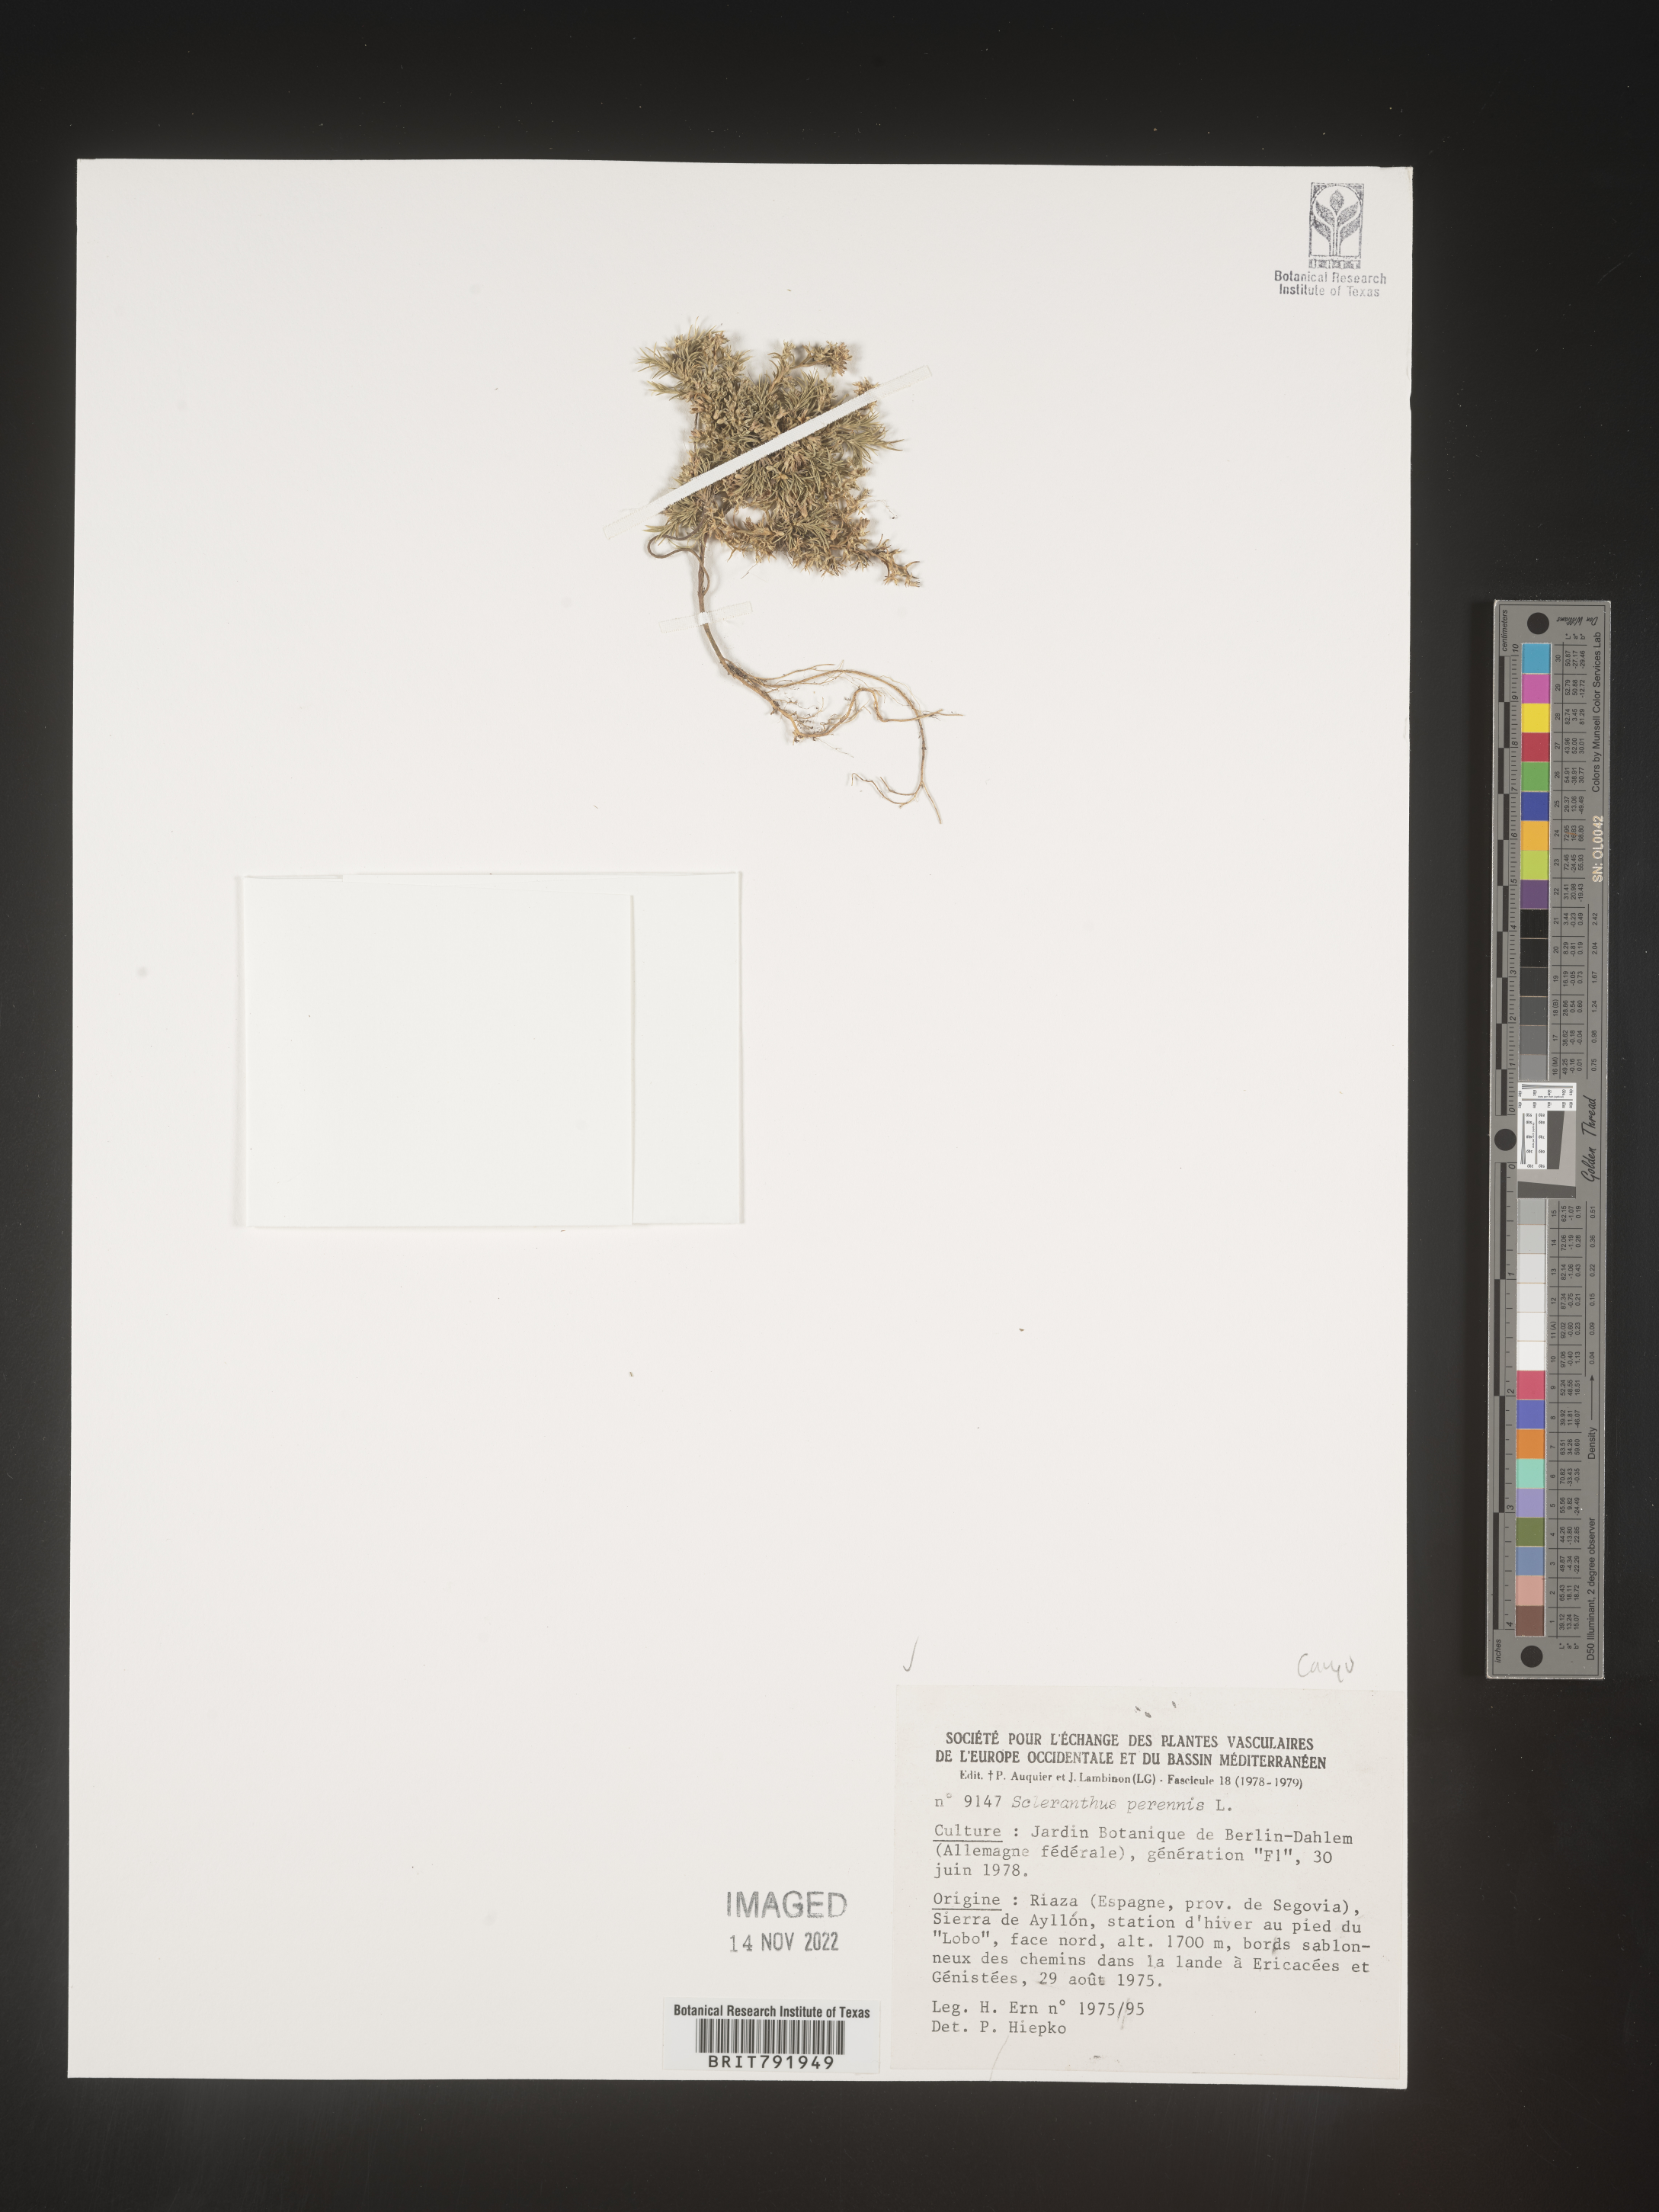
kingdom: Plantae
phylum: Tracheophyta
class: Magnoliopsida
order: Caryophyllales
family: Caryophyllaceae
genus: Scleranthus
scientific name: Scleranthus
